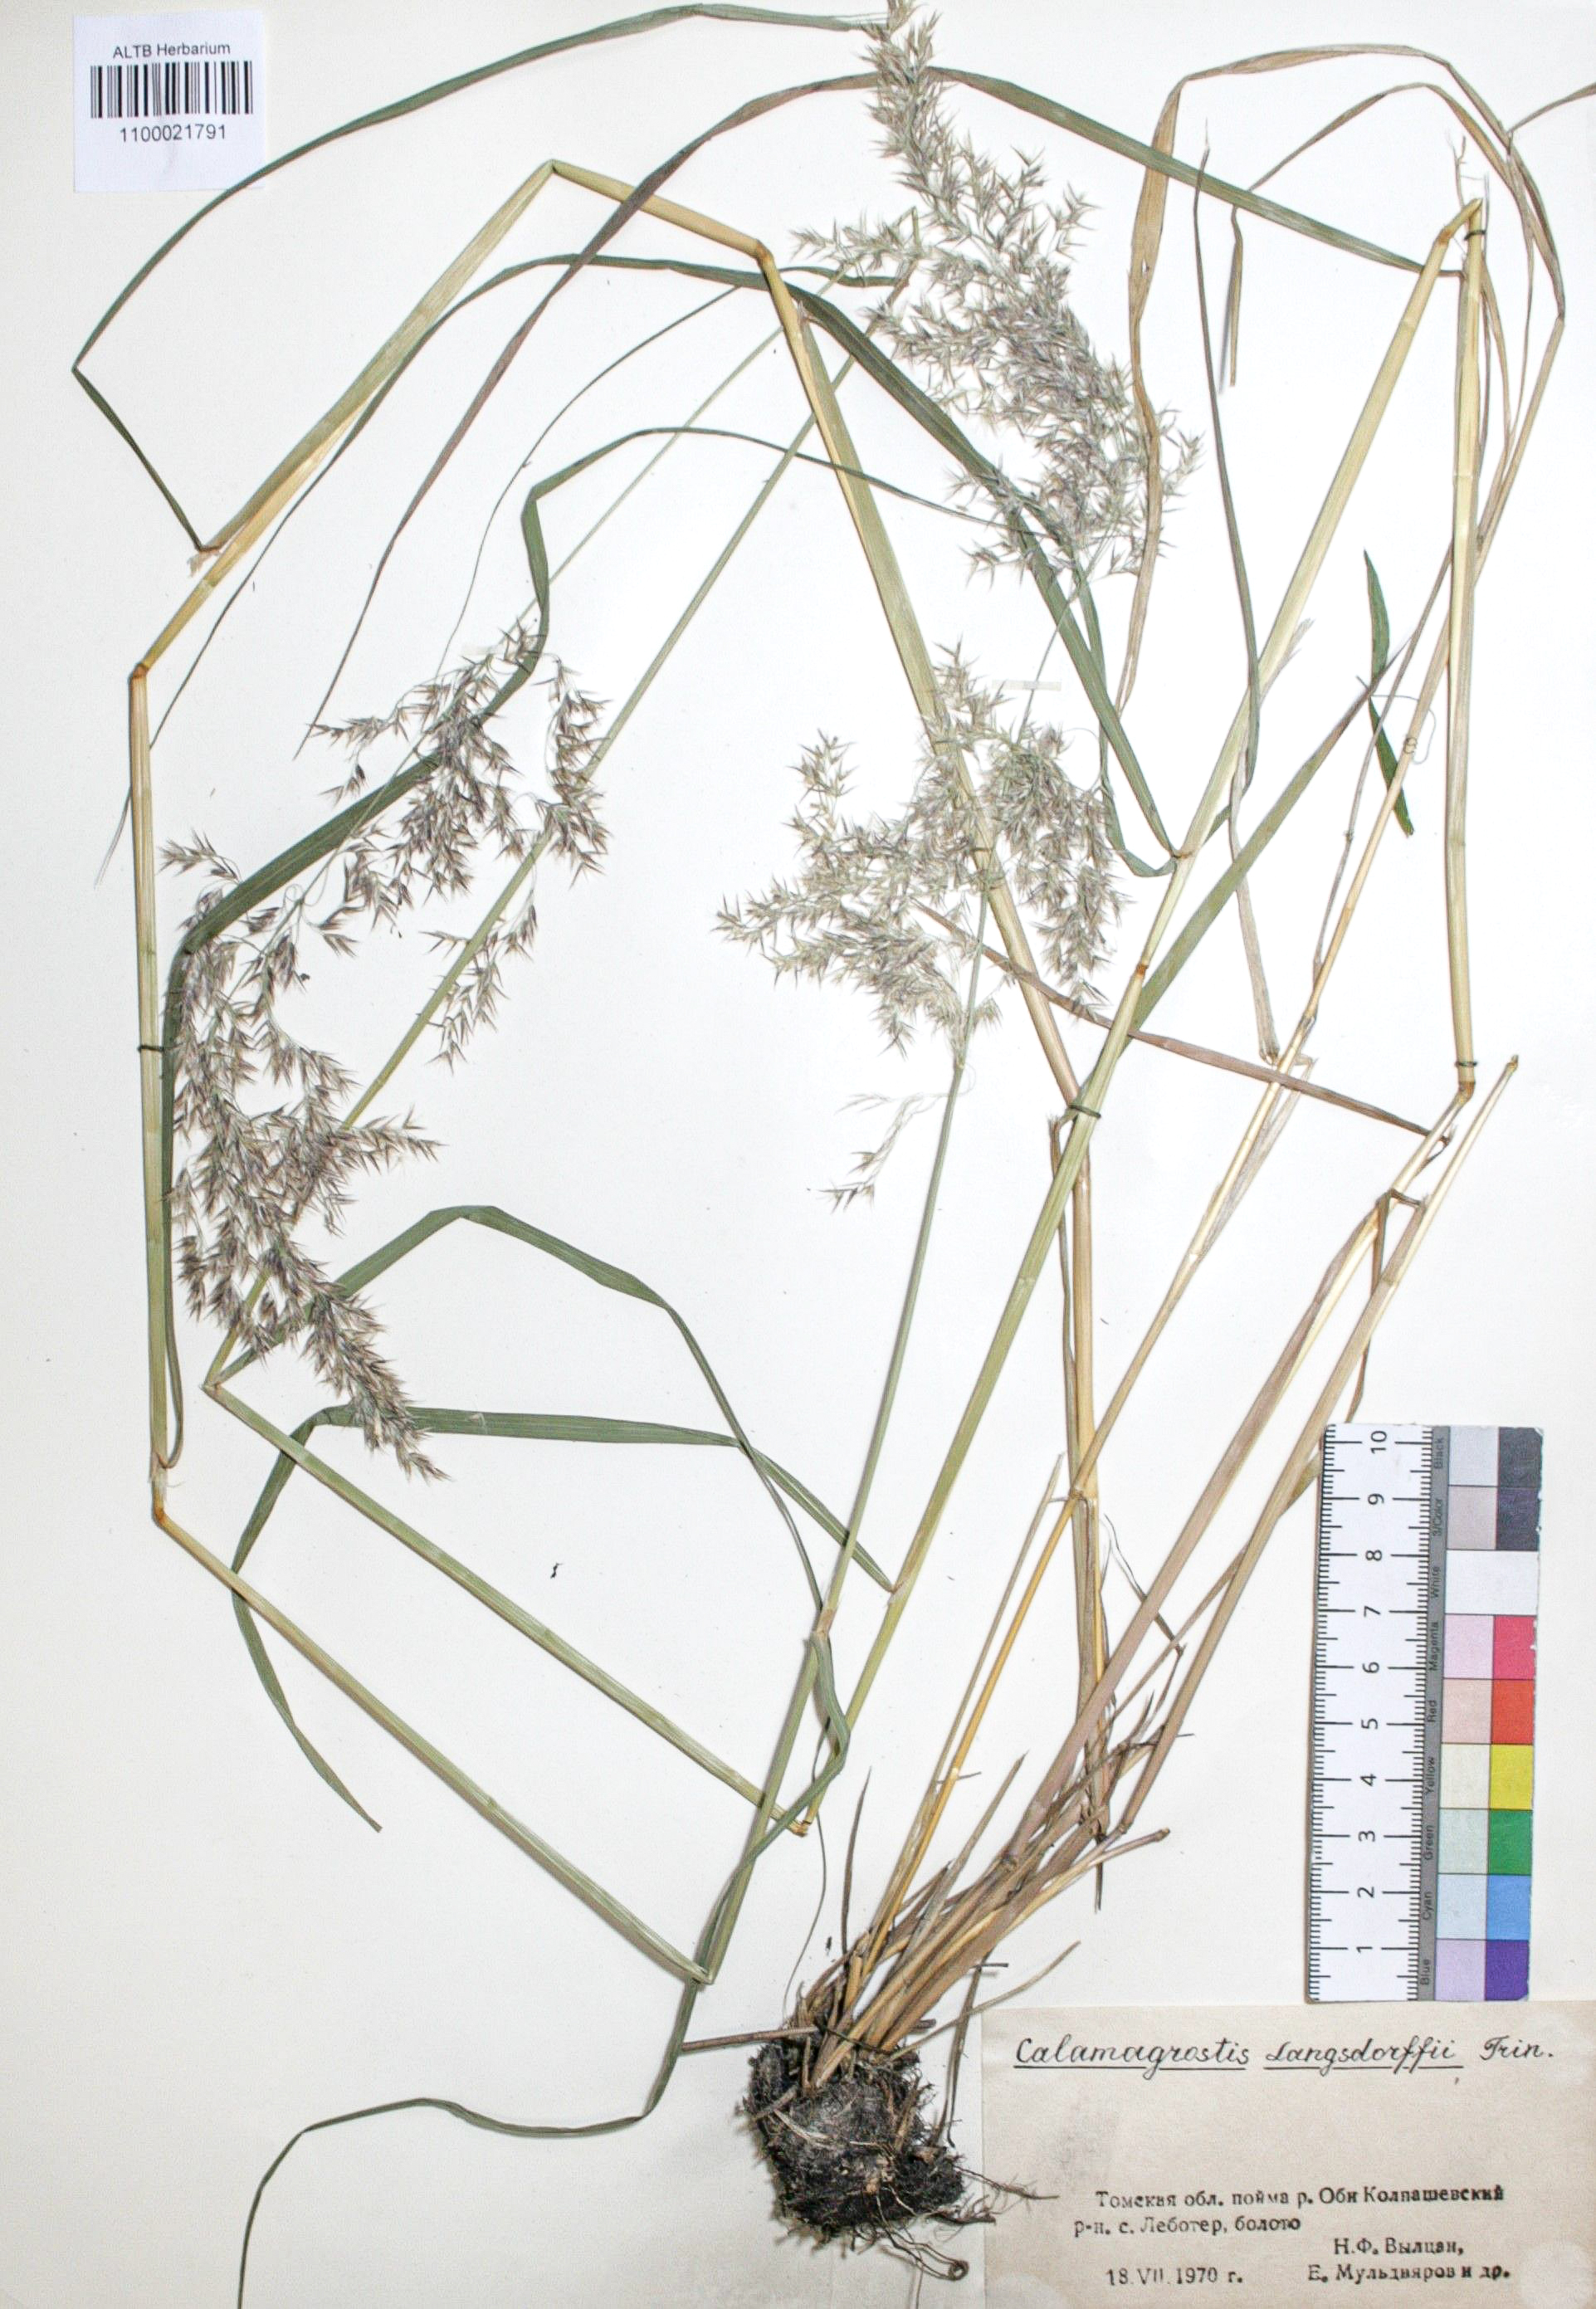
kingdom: Plantae
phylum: Tracheophyta
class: Liliopsida
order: Poales
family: Poaceae
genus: Calamagrostis
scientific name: Calamagrostis purpurea
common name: Scandinavian small-reed
